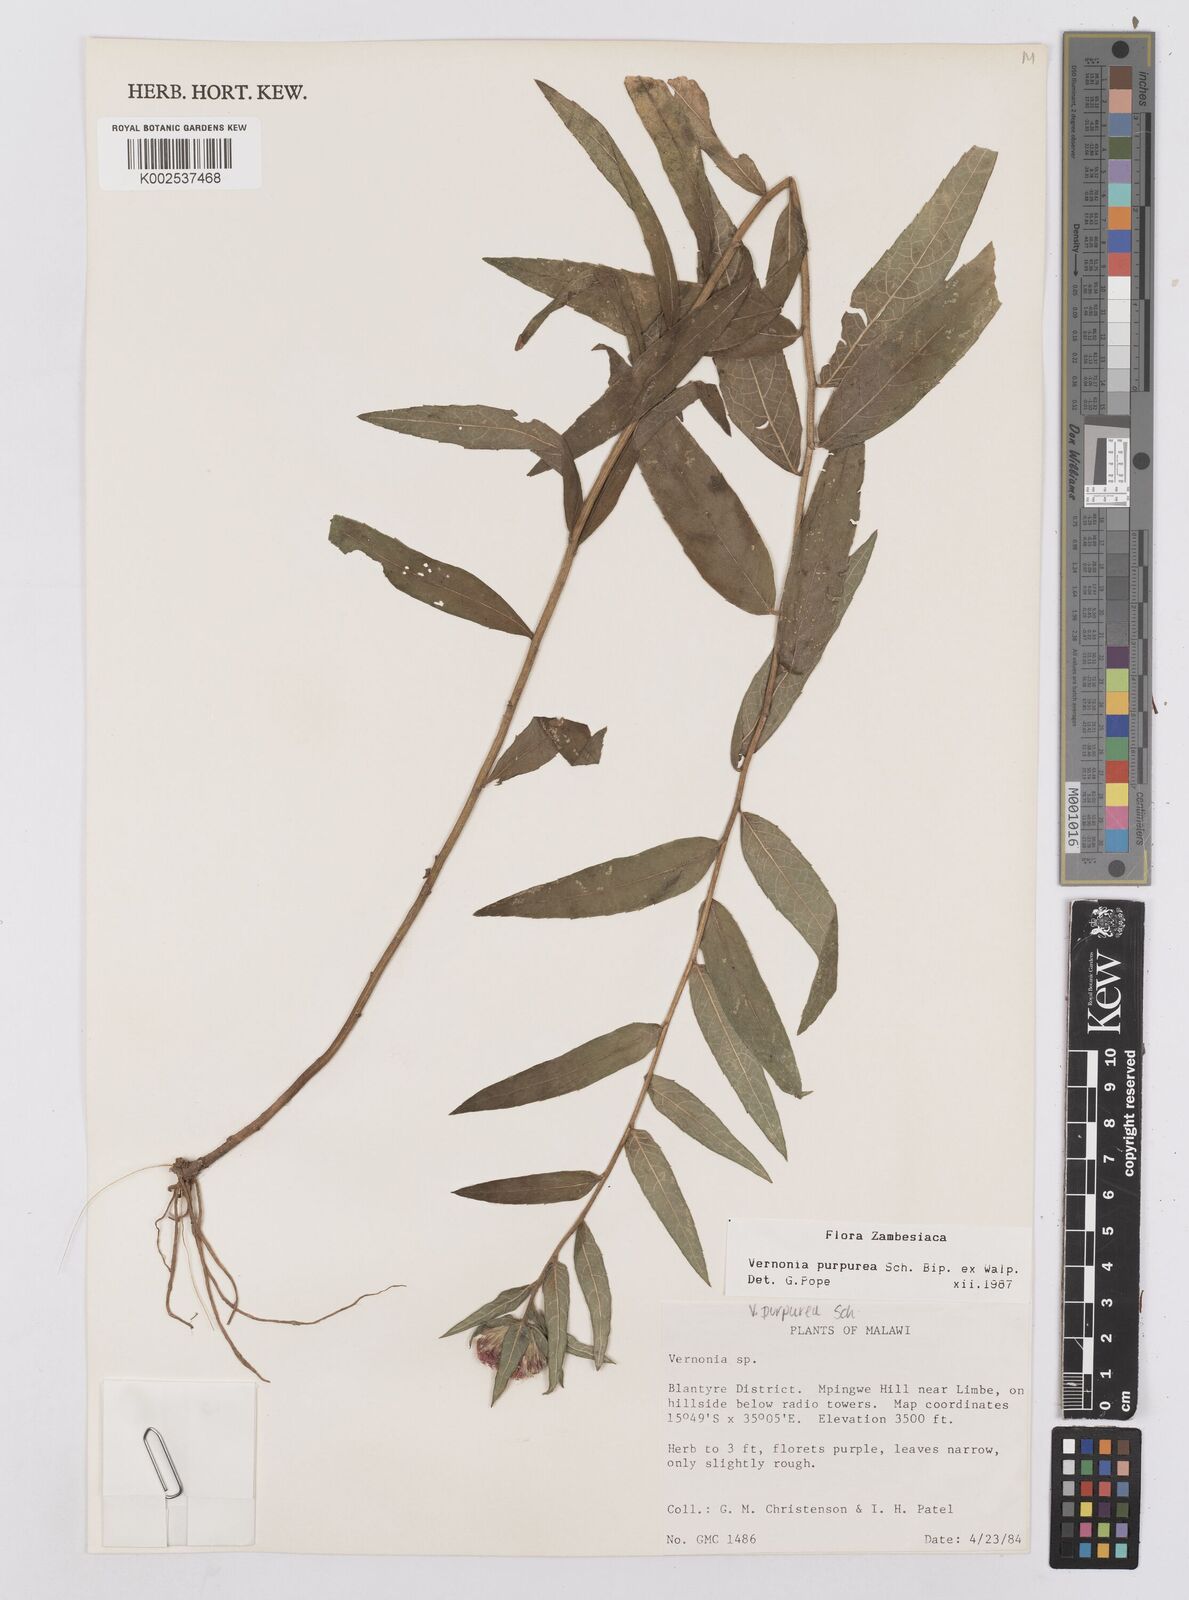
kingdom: Plantae
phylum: Tracheophyta
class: Magnoliopsida
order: Asterales
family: Asteraceae
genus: Nothovernonia
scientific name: Nothovernonia purpurea
